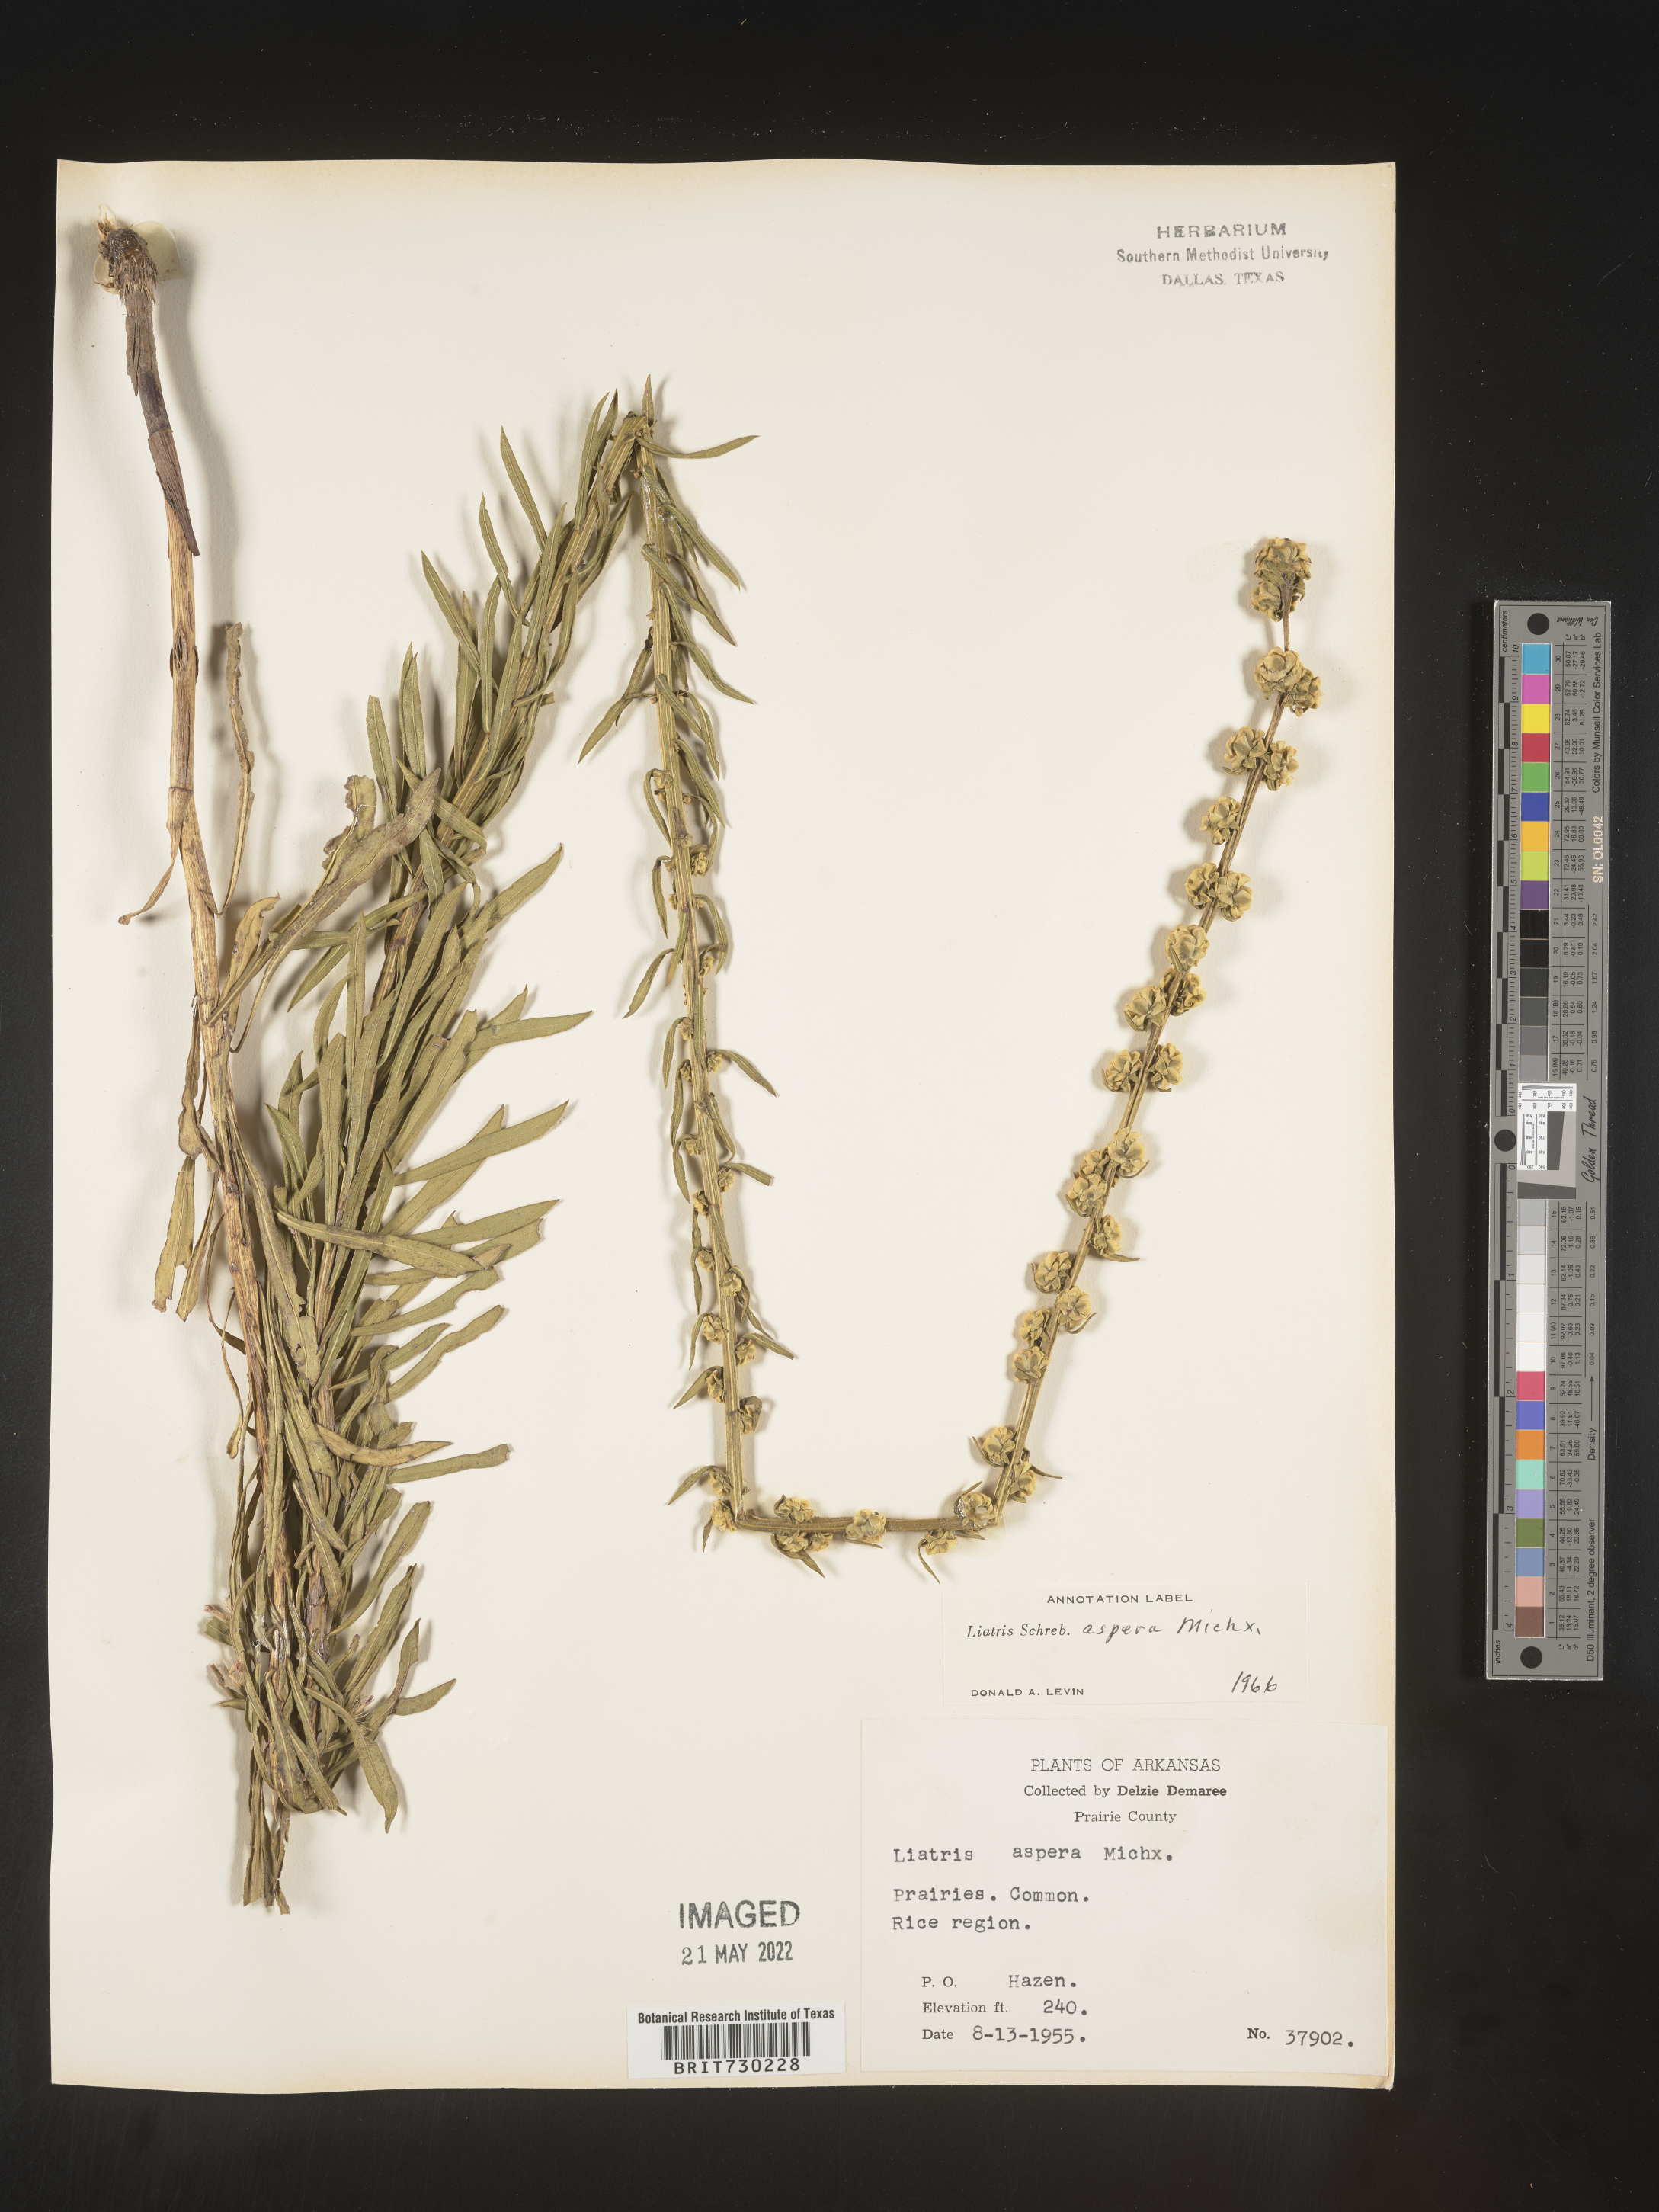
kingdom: Plantae
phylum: Tracheophyta
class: Magnoliopsida
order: Asterales
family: Asteraceae
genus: Liatris
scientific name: Liatris aspera
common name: Lacerate blazing-star
